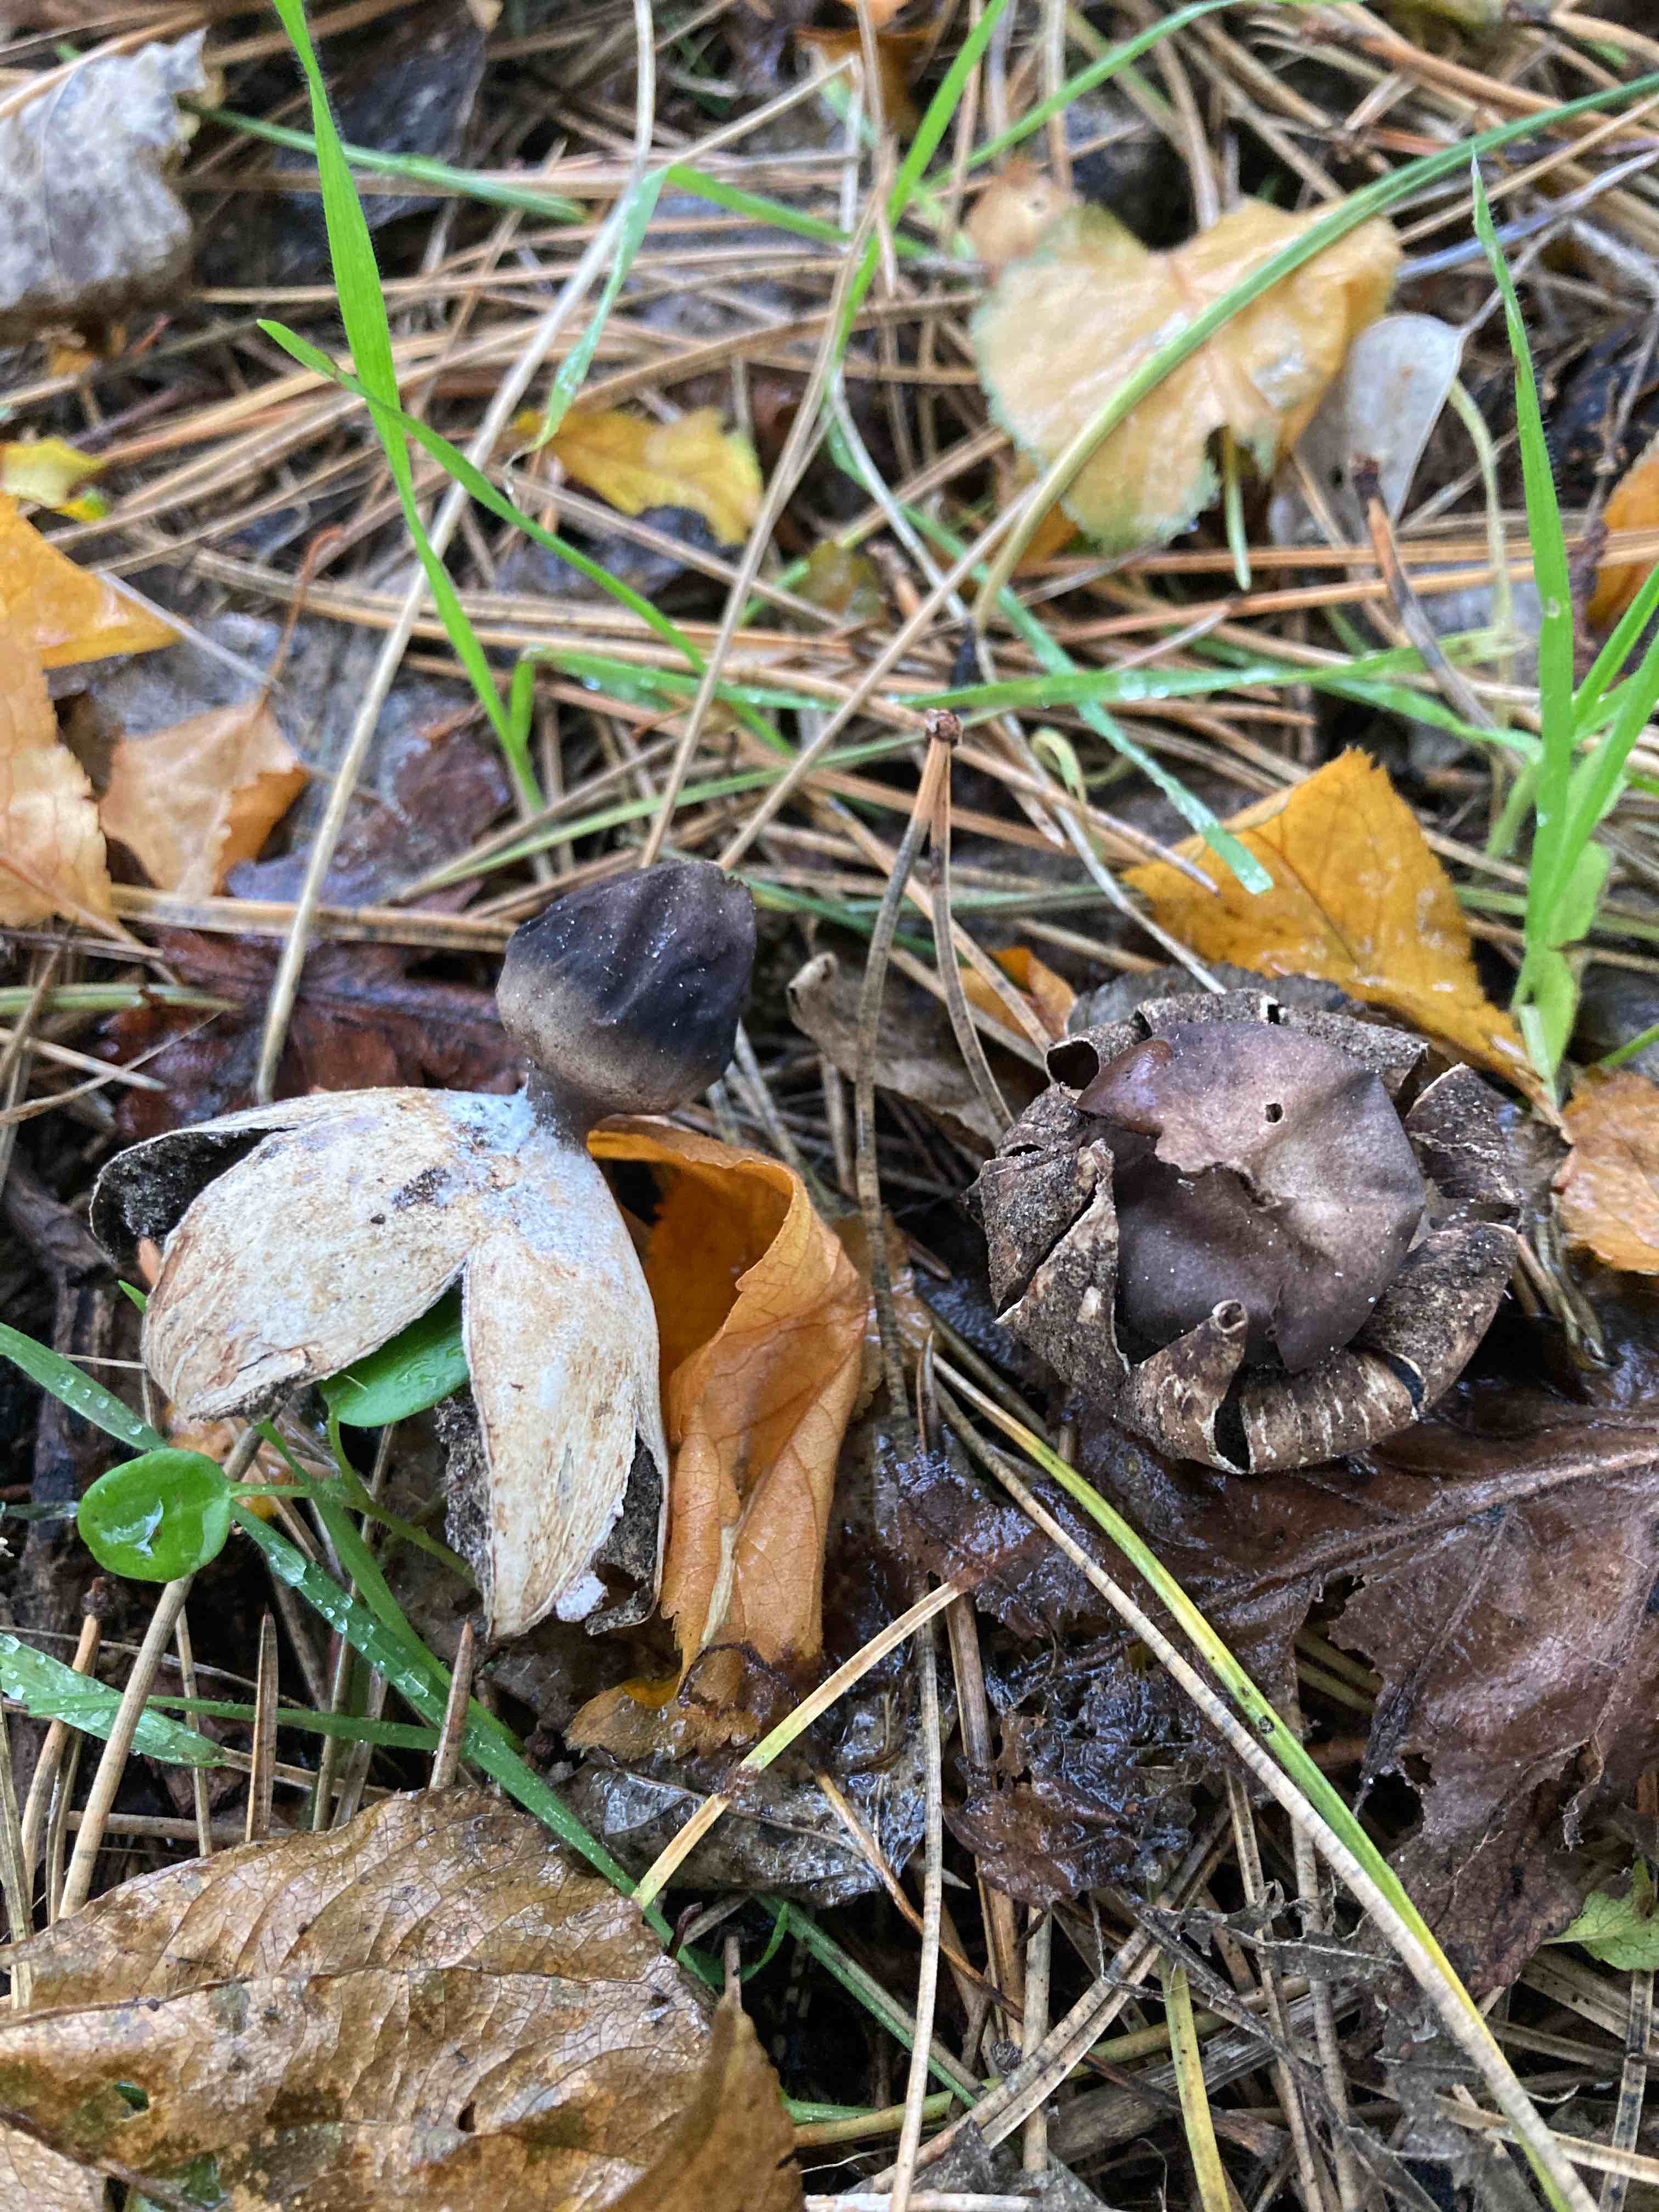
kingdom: Fungi
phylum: Basidiomycota
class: Agaricomycetes
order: Geastrales
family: Geastraceae
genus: Geastrum
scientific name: Geastrum coronatum
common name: mørk stjernebold
